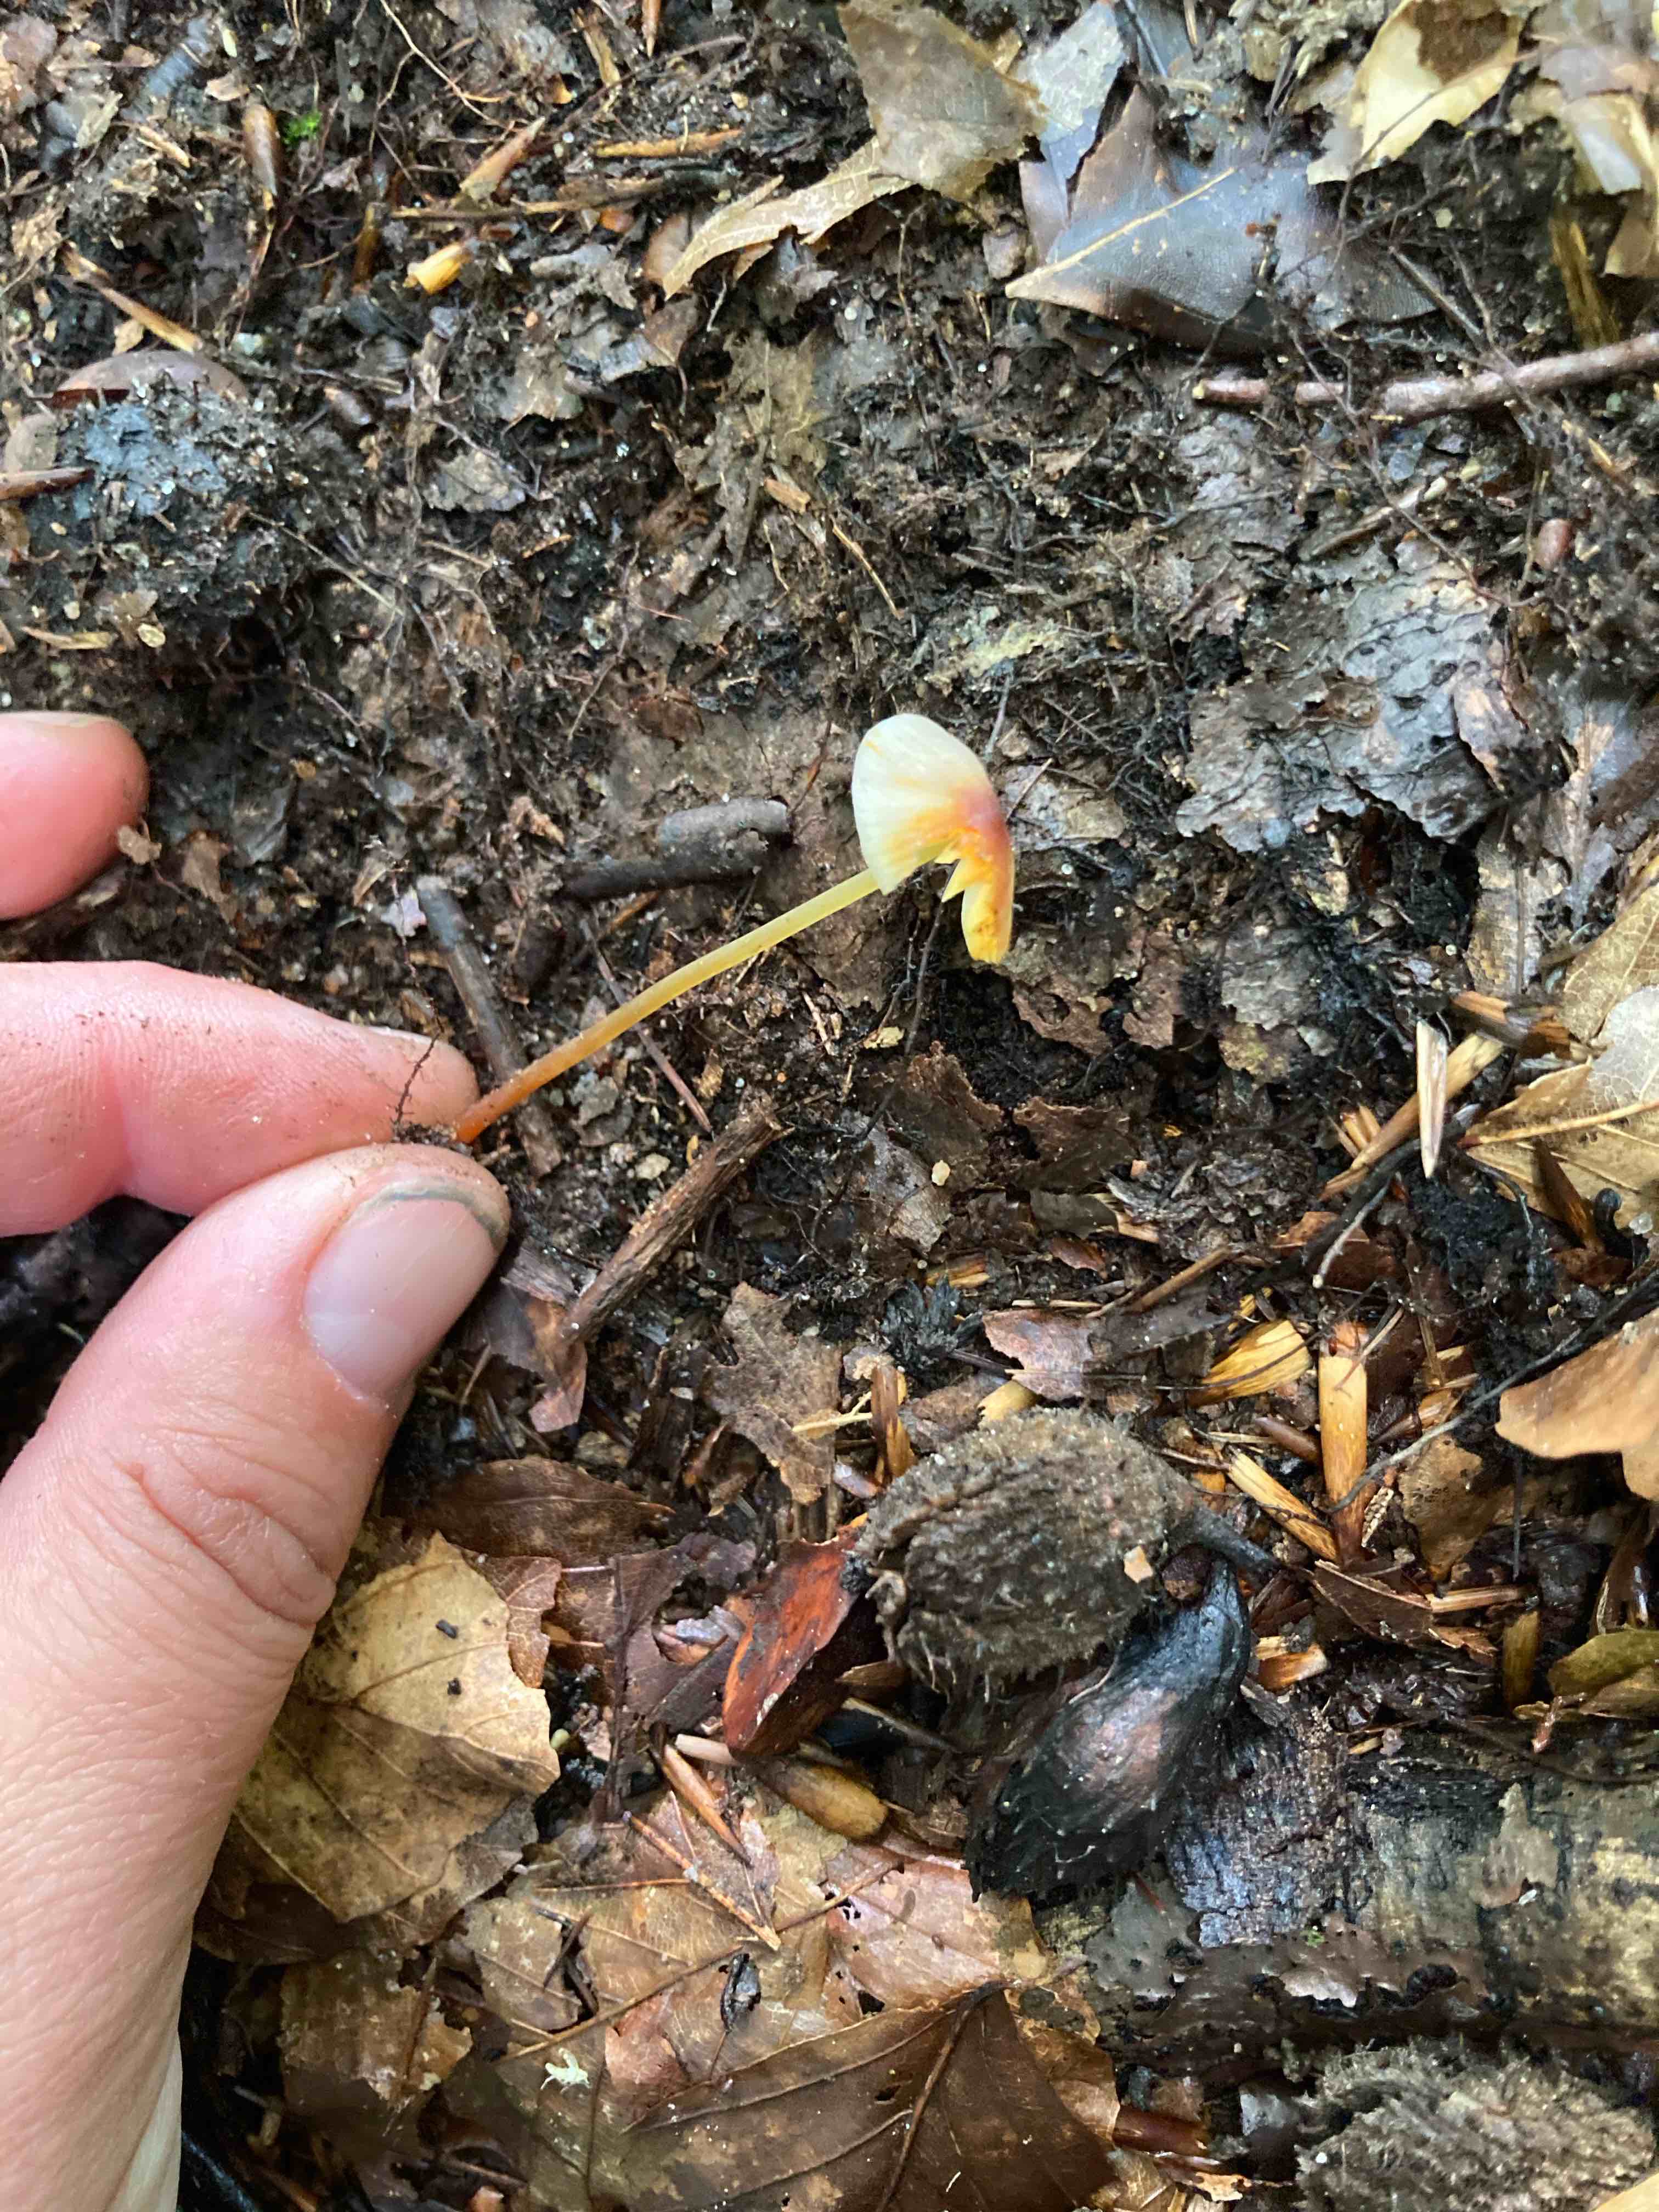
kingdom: Fungi
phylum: Basidiomycota
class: Agaricomycetes
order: Agaricales
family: Mycenaceae
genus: Mycena
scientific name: Mycena crocata
